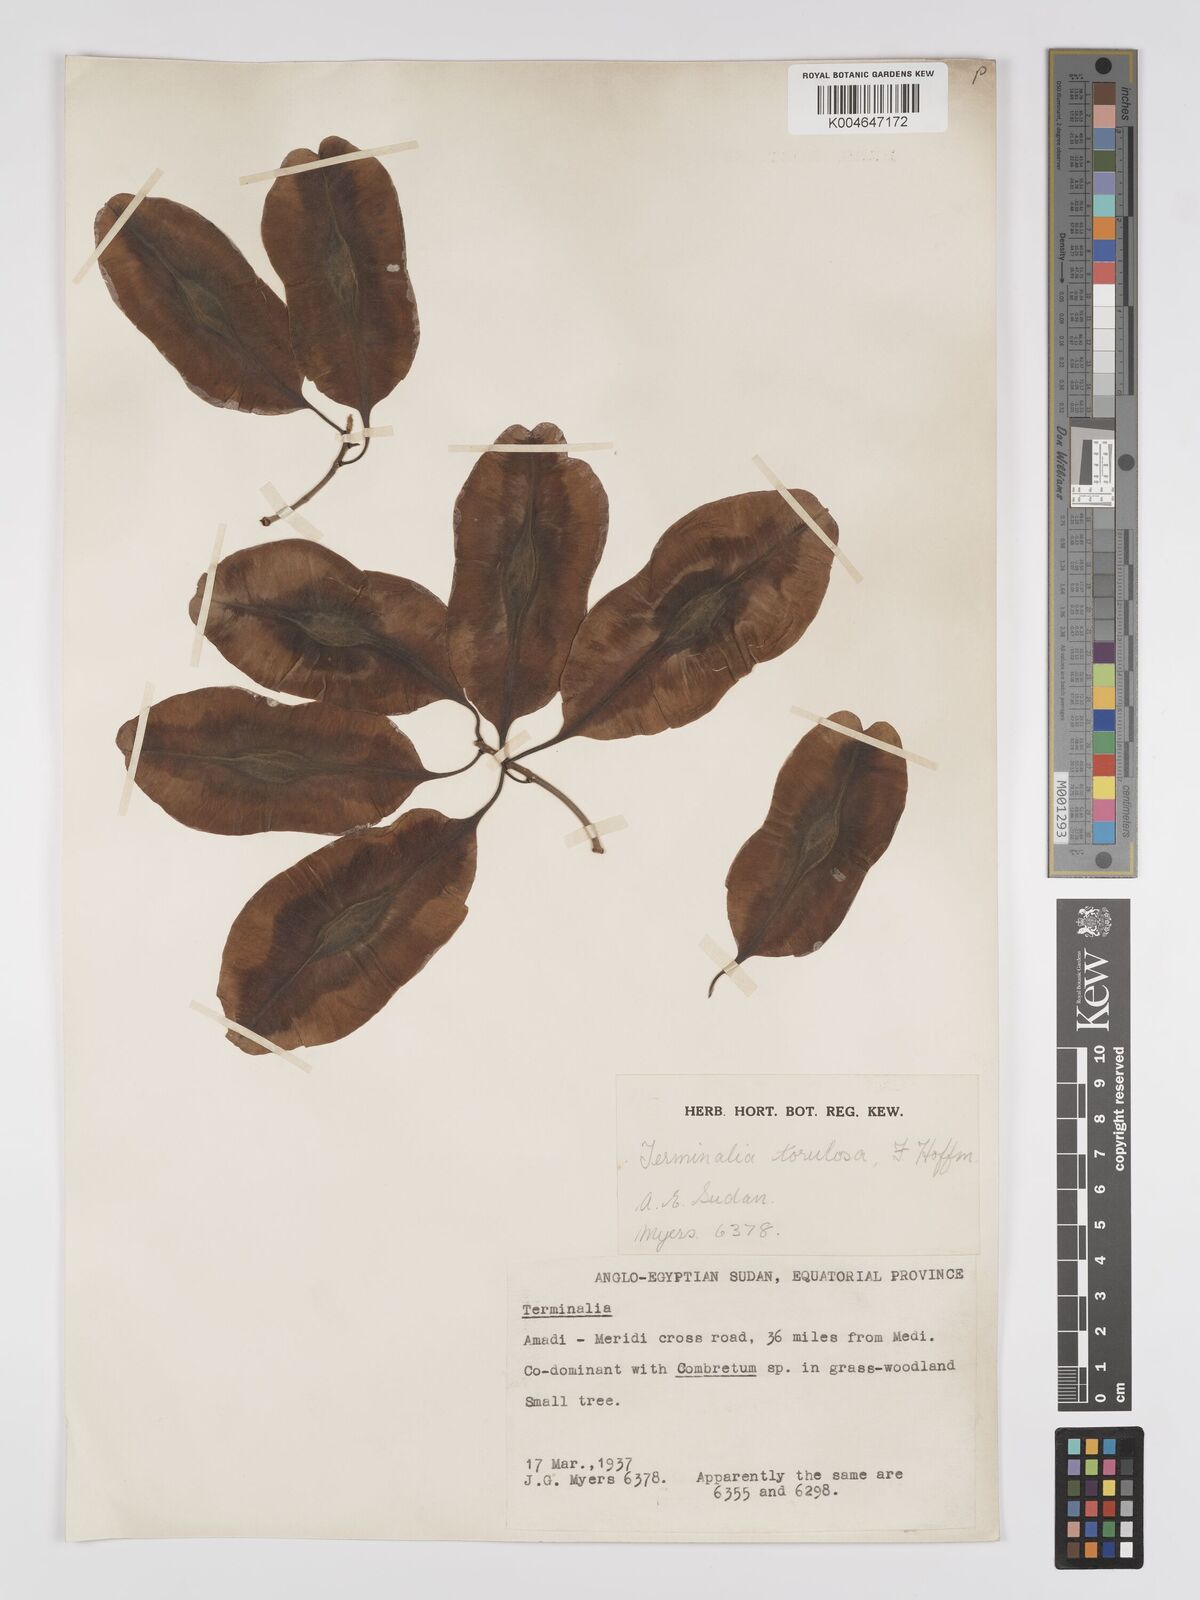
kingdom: Plantae
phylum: Tracheophyta
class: Magnoliopsida
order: Myrtales
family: Combretaceae
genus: Terminalia
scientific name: Terminalia mollis
